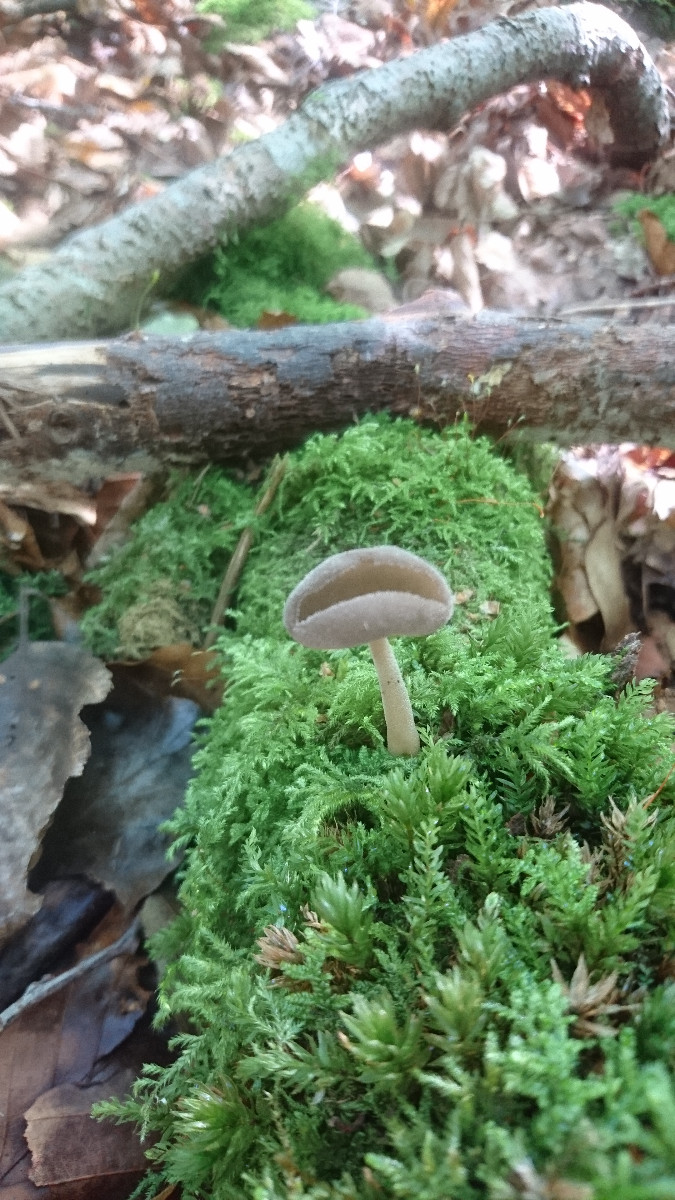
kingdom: Fungi
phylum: Ascomycota
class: Pezizomycetes
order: Pezizales
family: Helvellaceae
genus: Helvella
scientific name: Helvella
